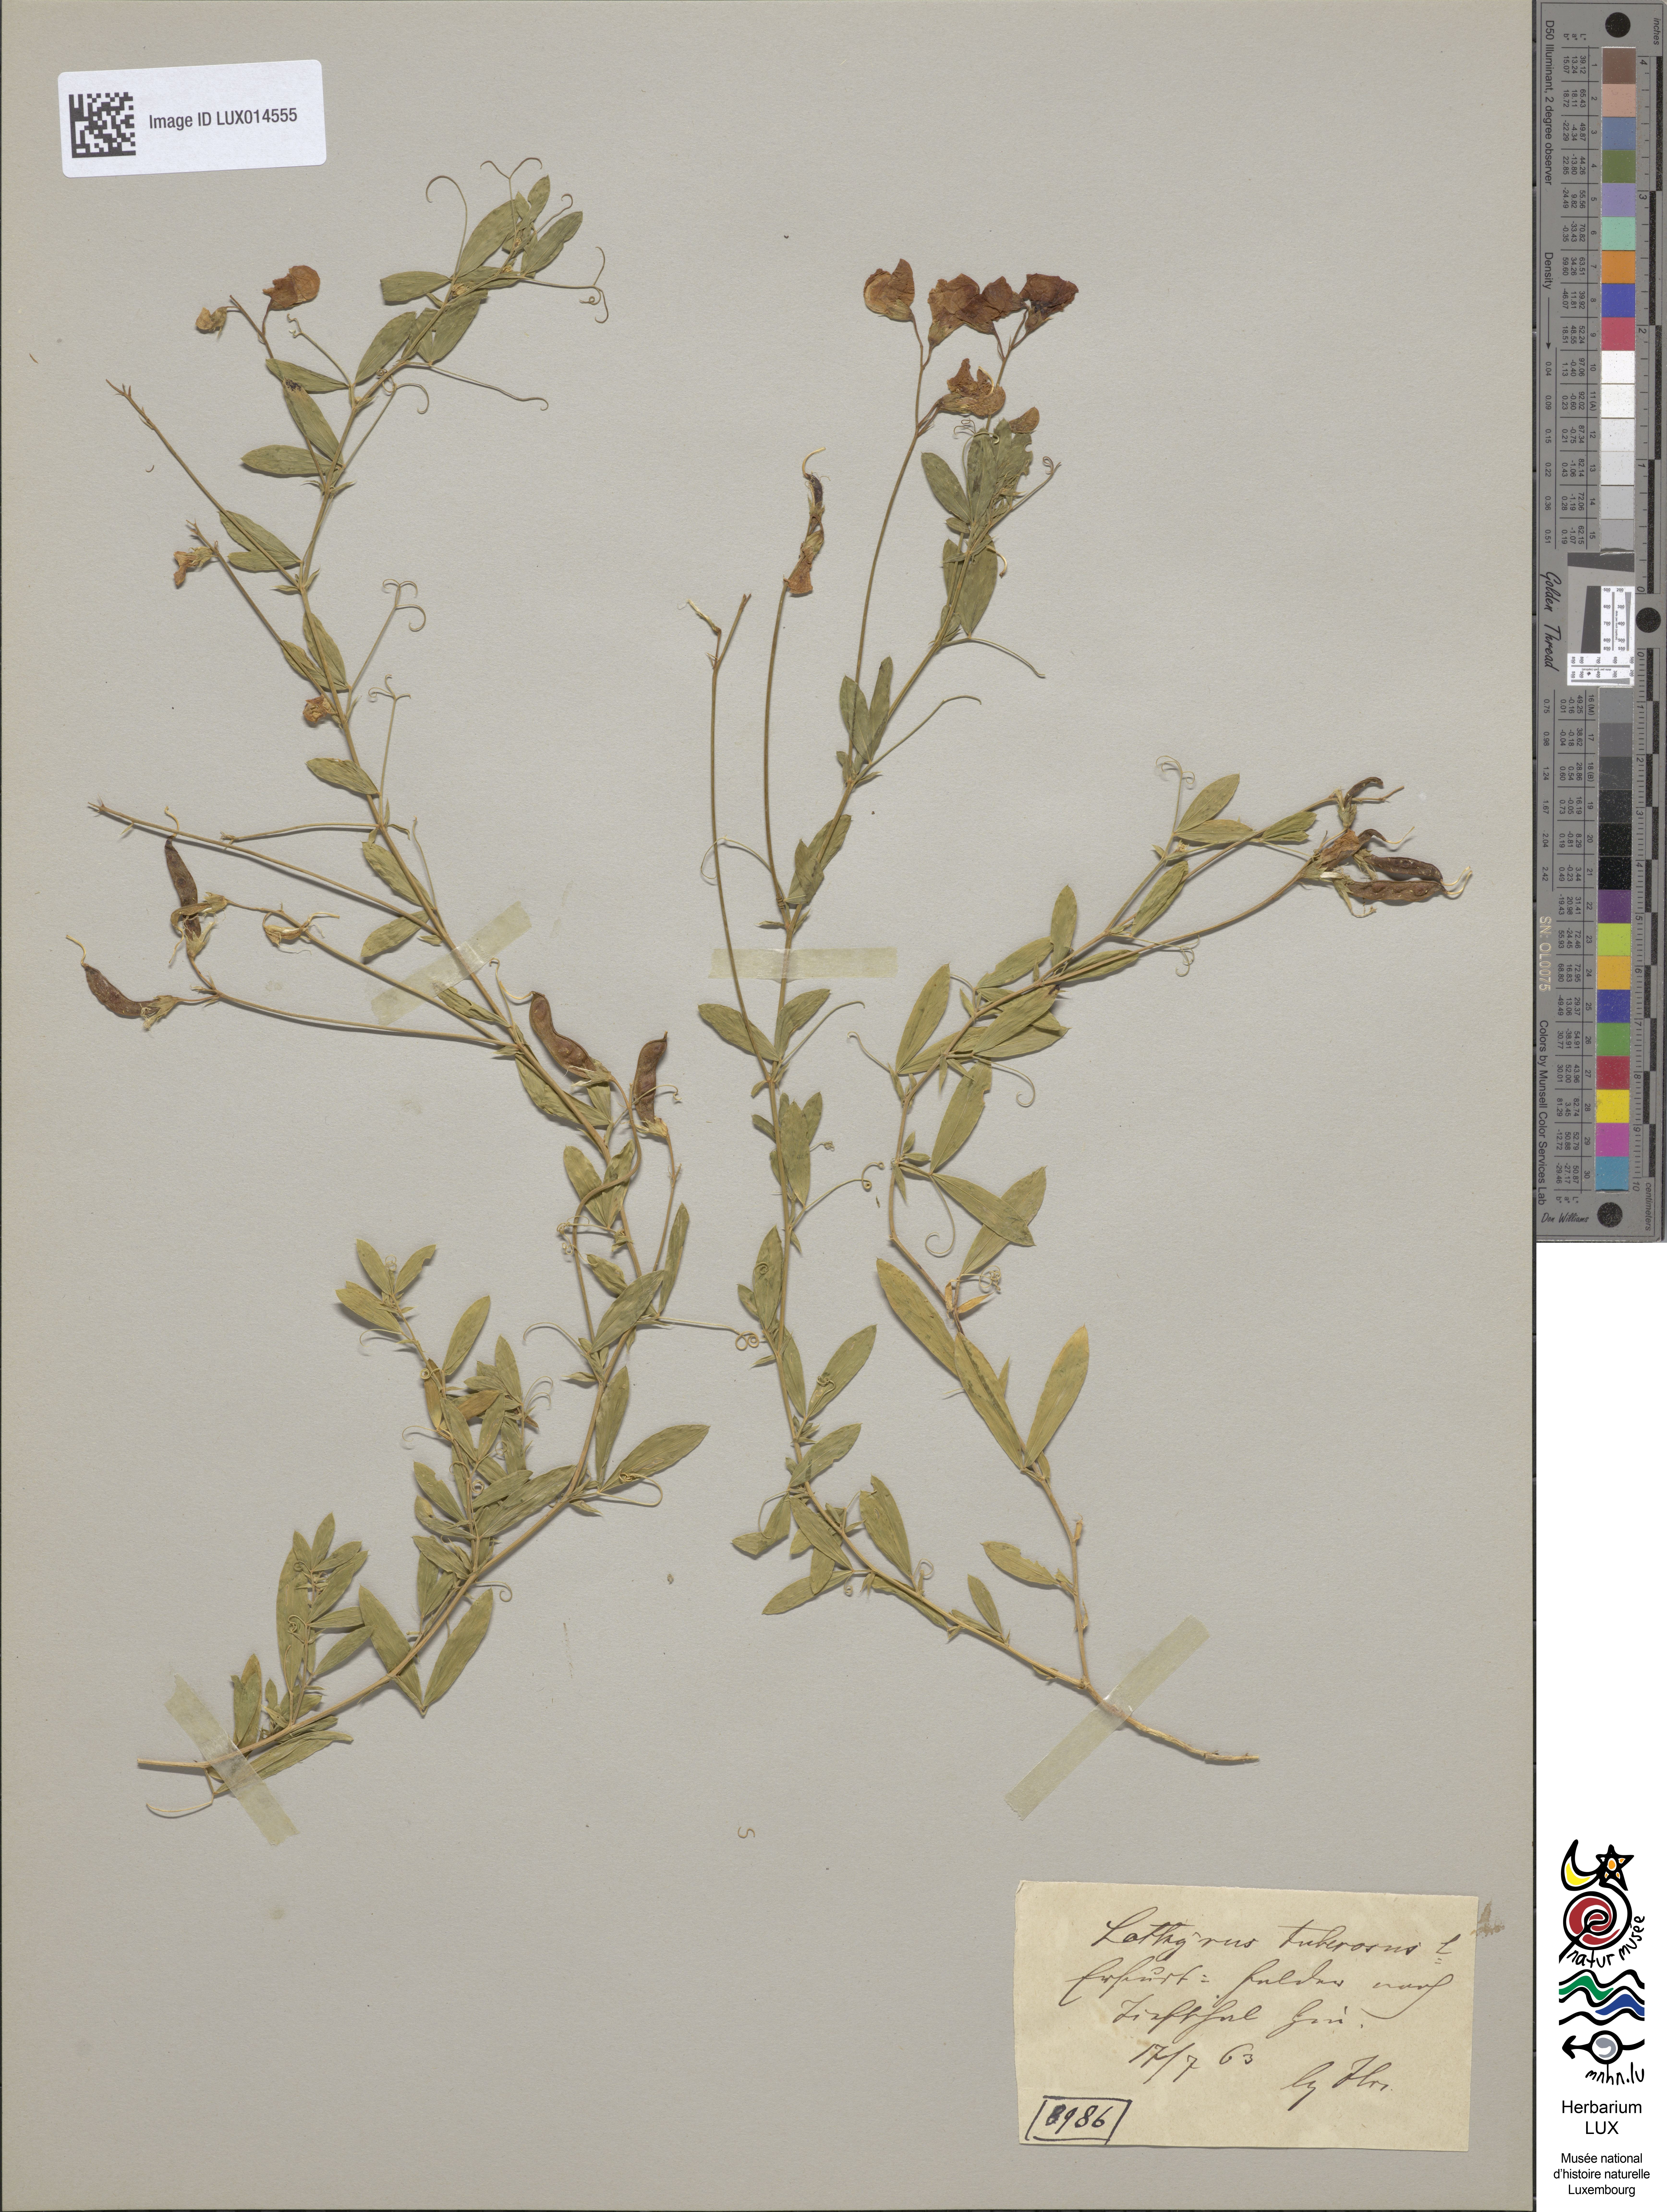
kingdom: Plantae
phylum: Tracheophyta
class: Magnoliopsida
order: Fabales
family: Fabaceae
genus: Lathyrus
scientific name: Lathyrus tuberosus
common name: Tuberous pea
